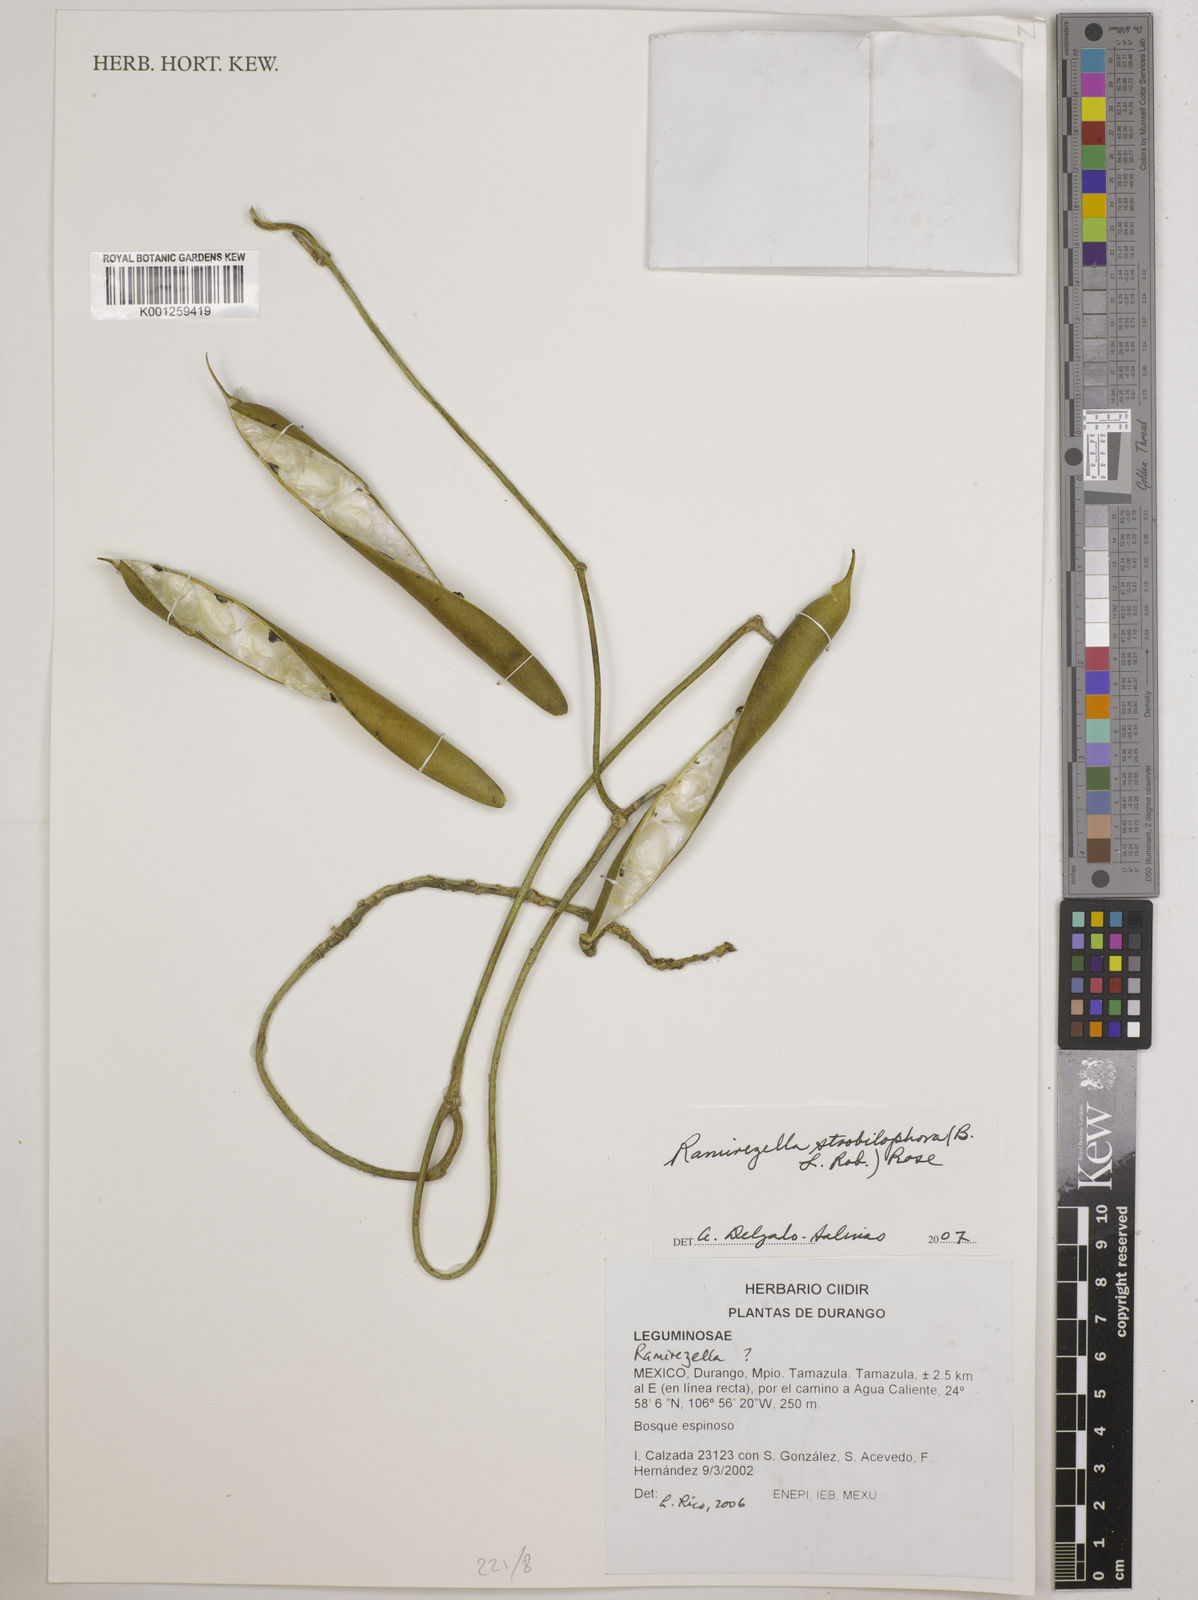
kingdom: Plantae
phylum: Tracheophyta
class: Magnoliopsida
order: Fabales
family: Fabaceae
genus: Ramirezella
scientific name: Ramirezella strobilophora
